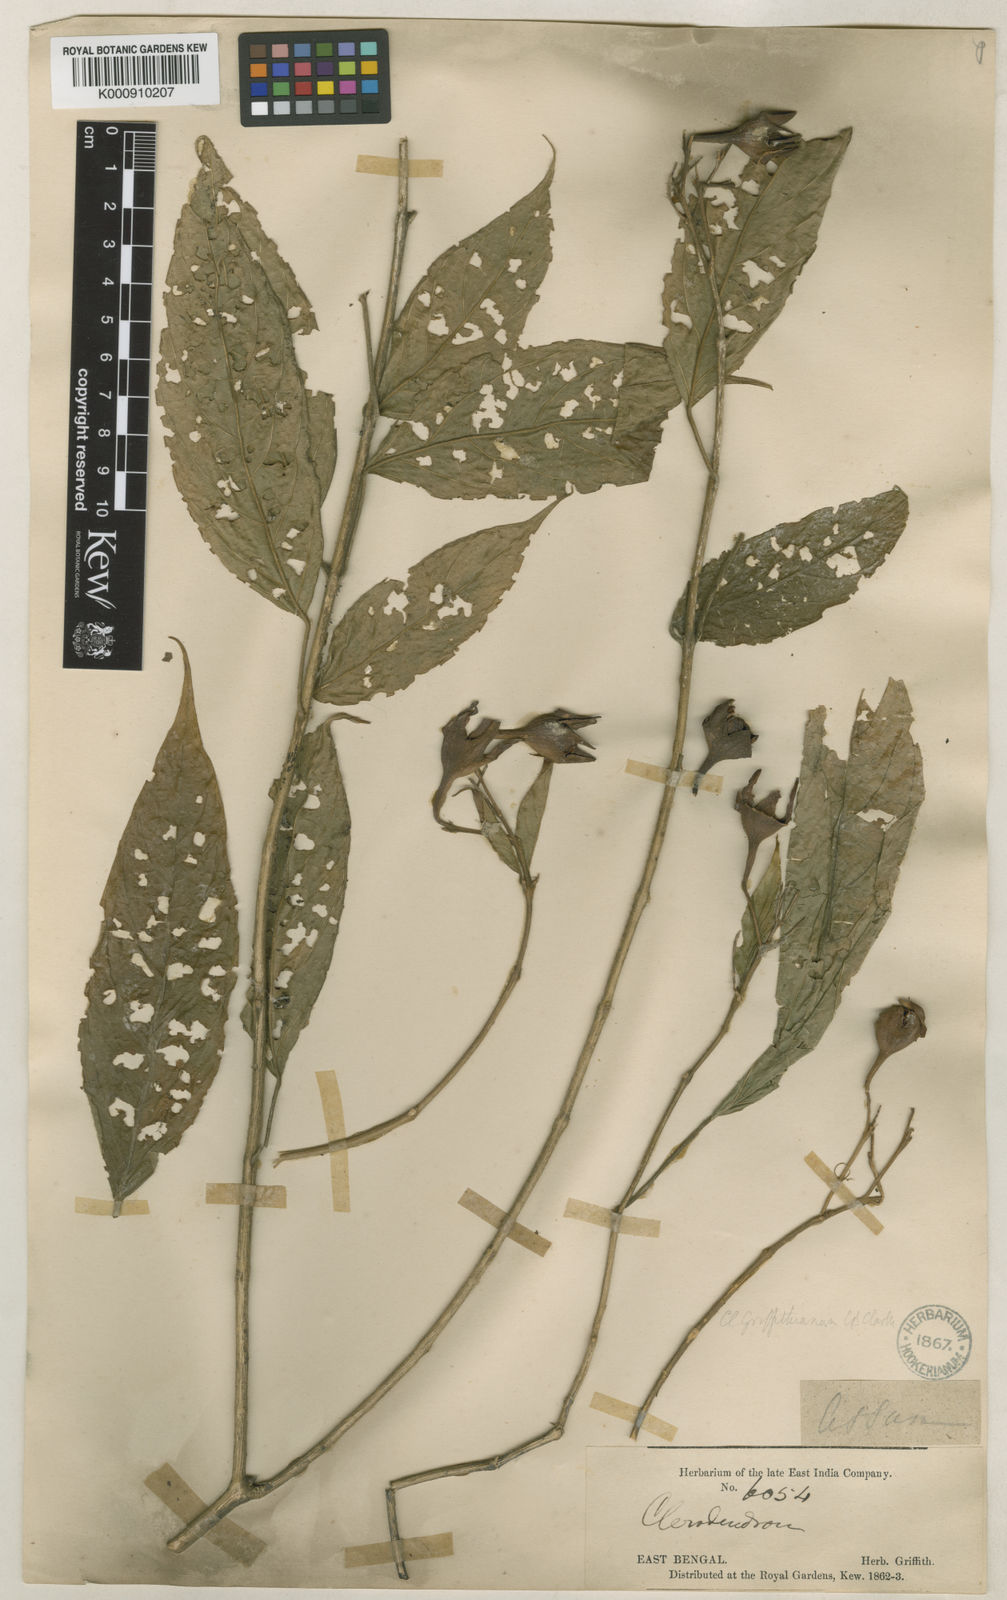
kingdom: Plantae
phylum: Tracheophyta
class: Magnoliopsida
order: Lamiales
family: Lamiaceae
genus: Clerodendrum
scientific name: Clerodendrum griffithianum
